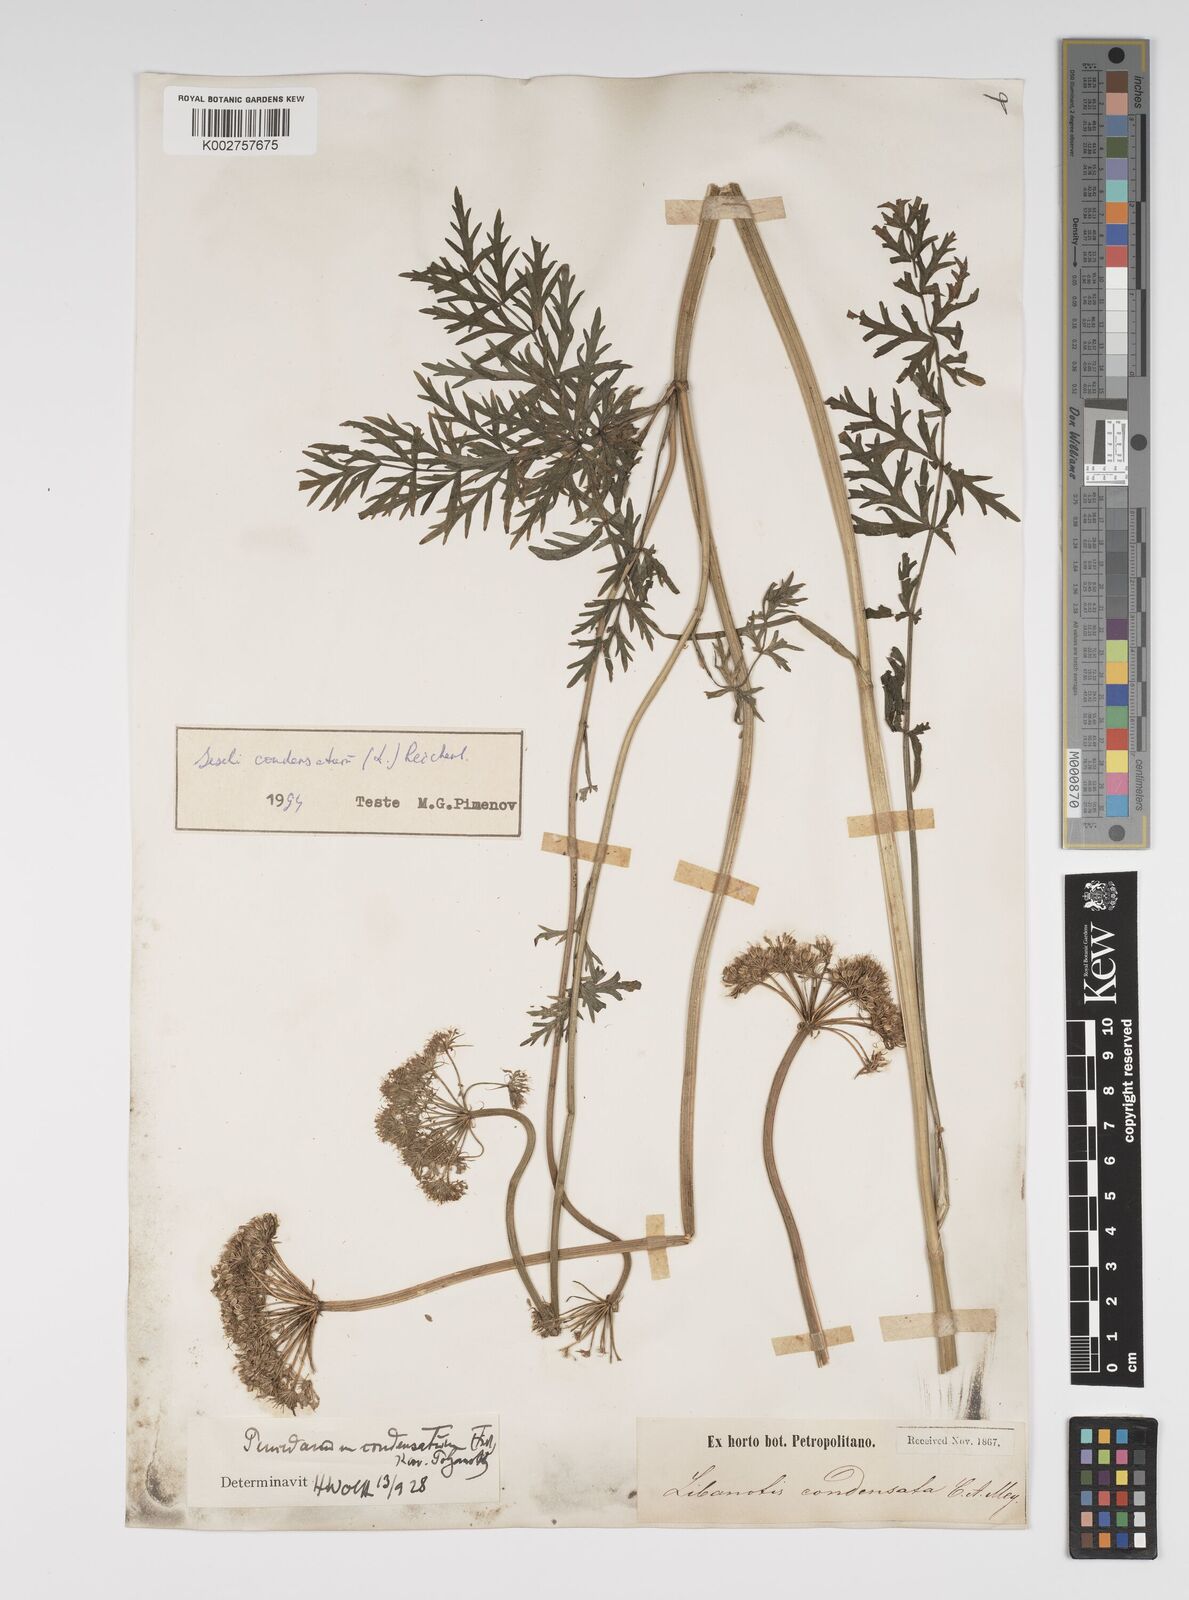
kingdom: Plantae
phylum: Tracheophyta
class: Magnoliopsida
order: Apiales
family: Apiaceae
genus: Seseli
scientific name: Seseli condensatum
